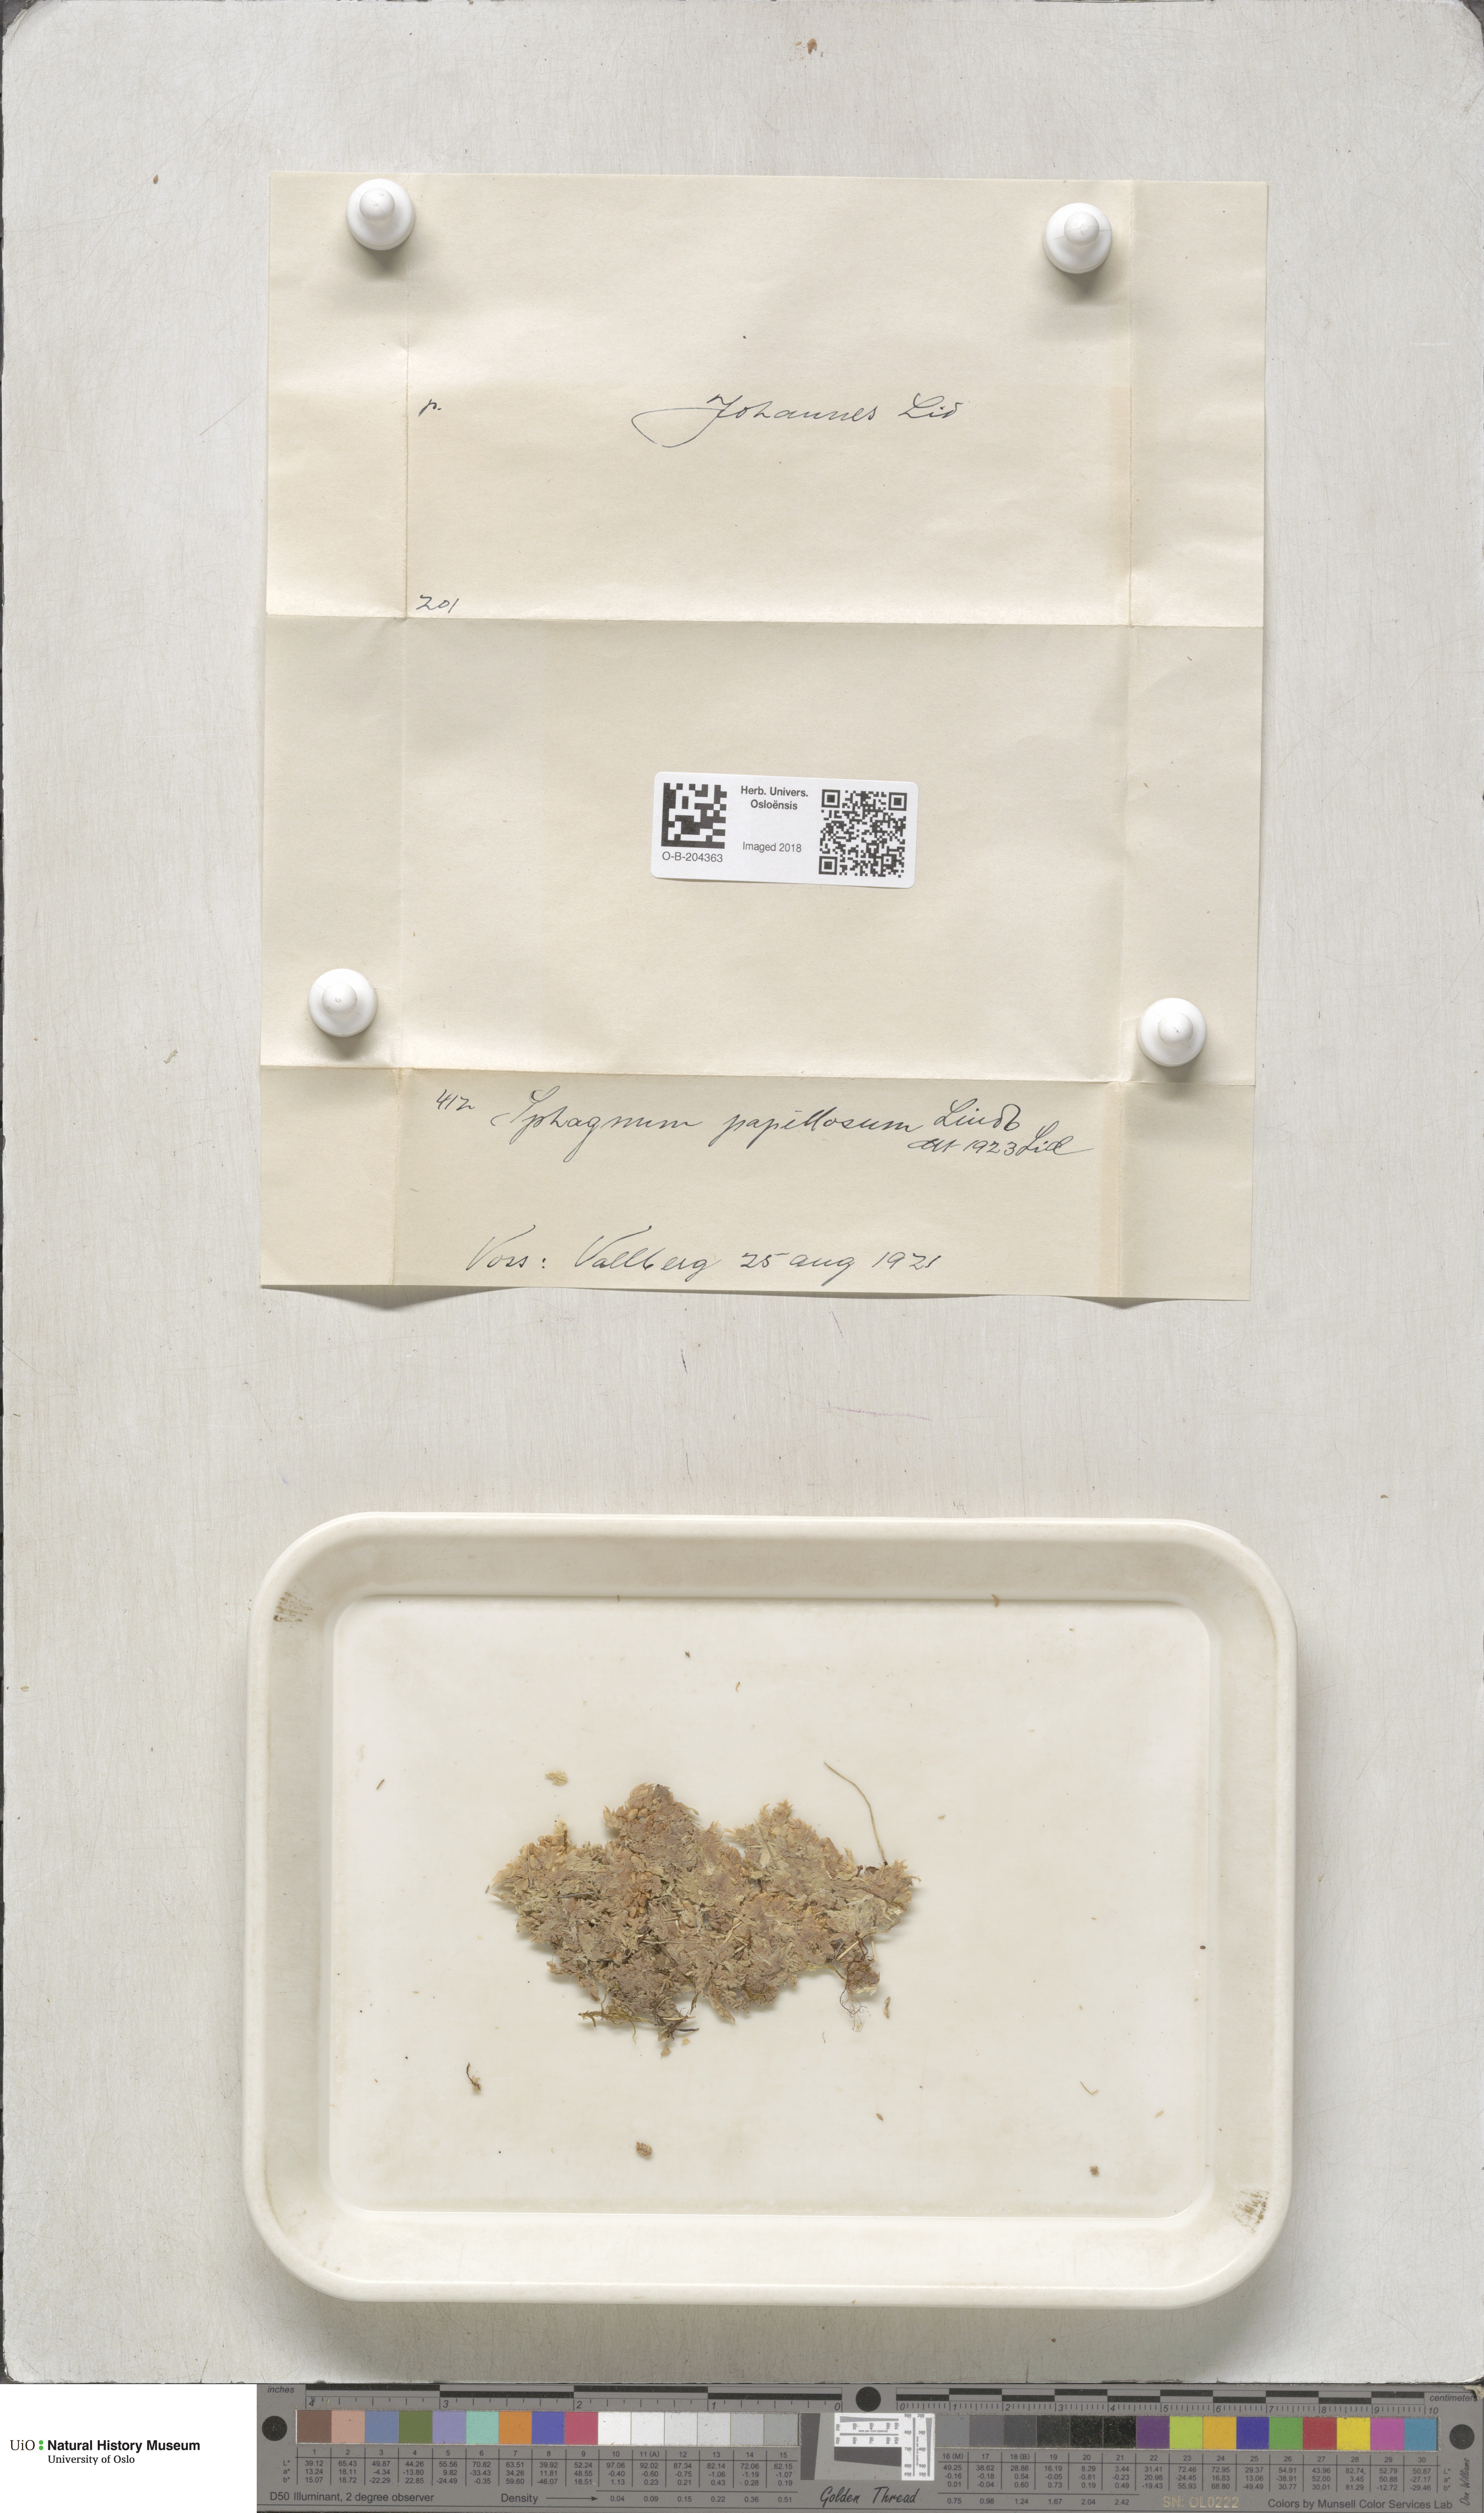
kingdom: Plantae
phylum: Bryophyta
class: Sphagnopsida
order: Sphagnales
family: Sphagnaceae
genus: Sphagnum
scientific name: Sphagnum papillosum
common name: Papillose peat moss
